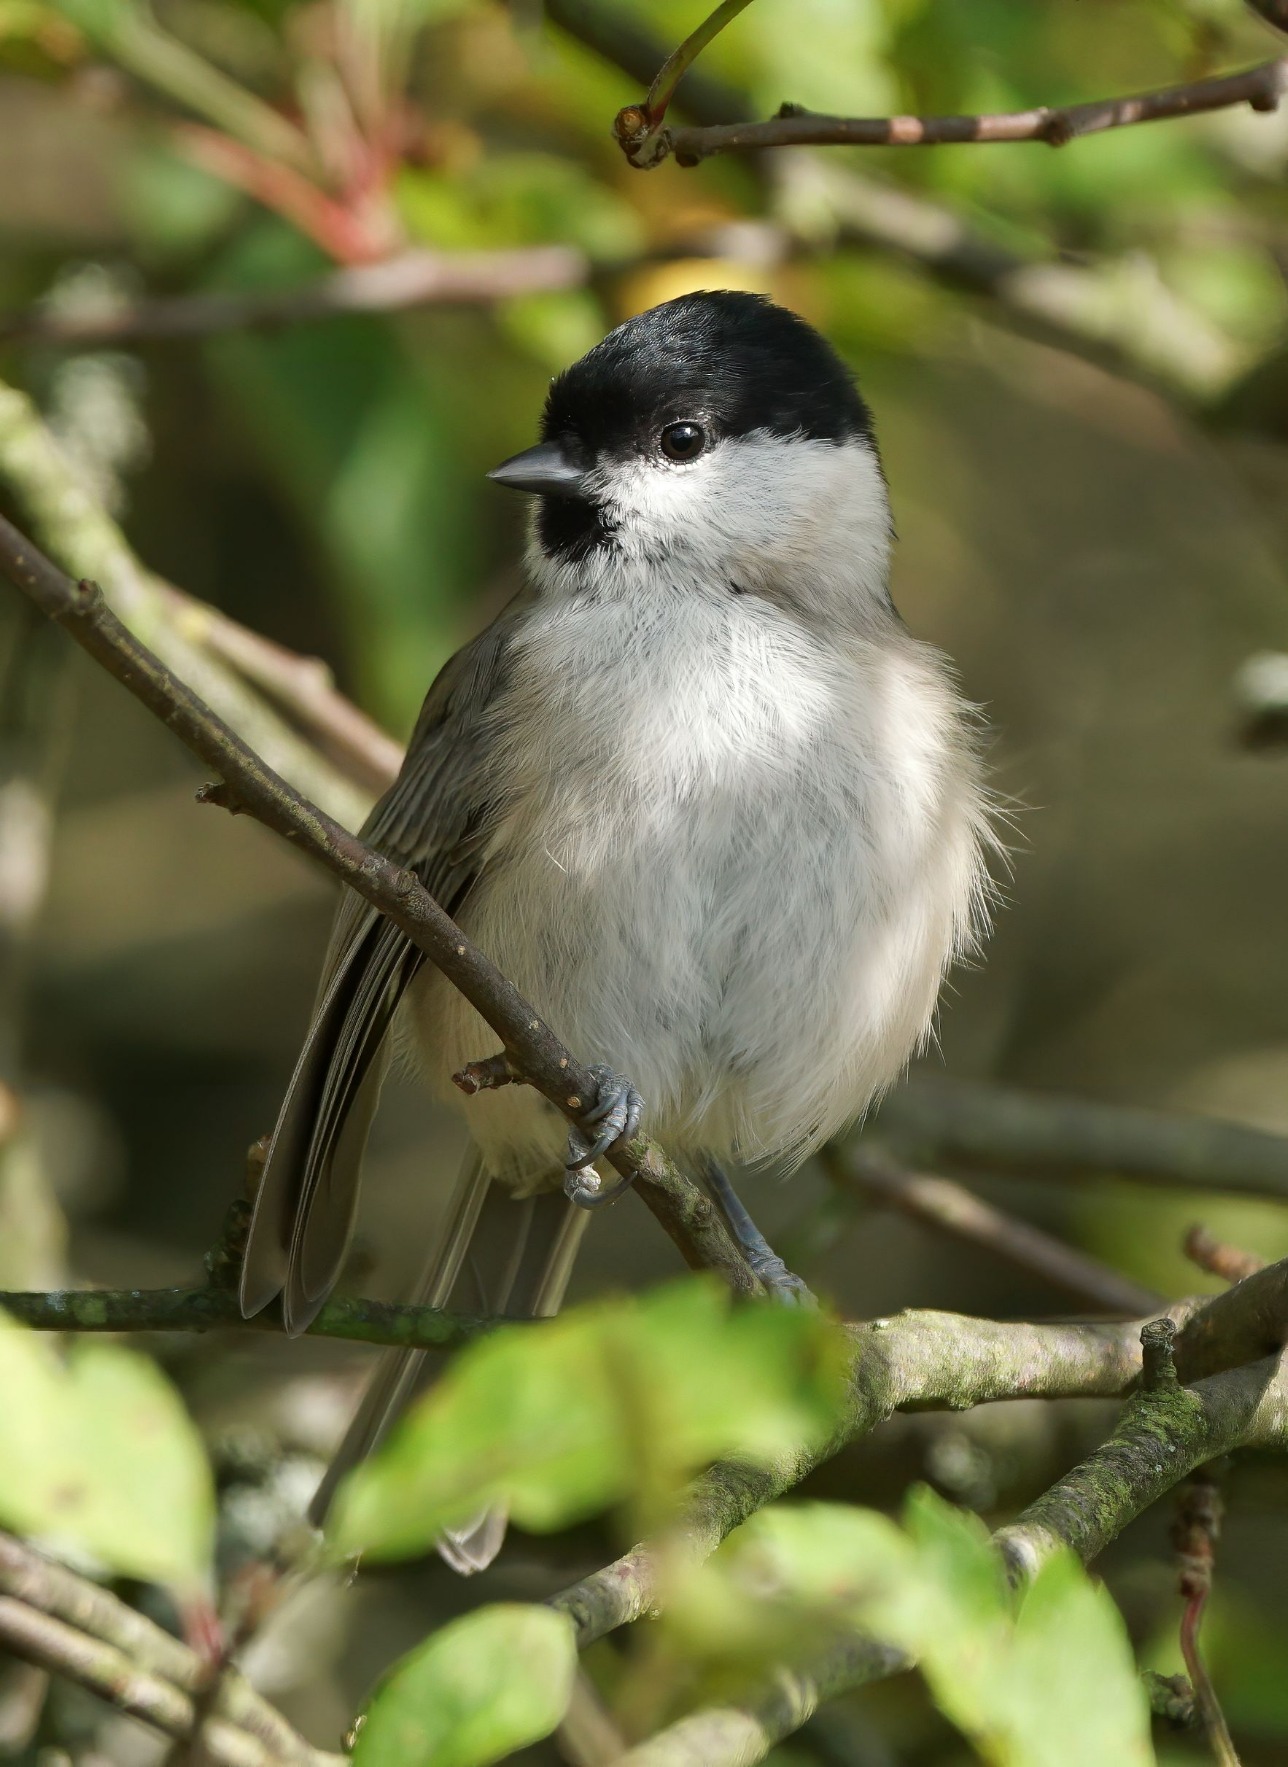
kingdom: Animalia
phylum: Chordata
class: Aves
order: Passeriformes
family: Paridae
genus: Poecile
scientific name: Poecile palustris
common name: Sumpmejse
